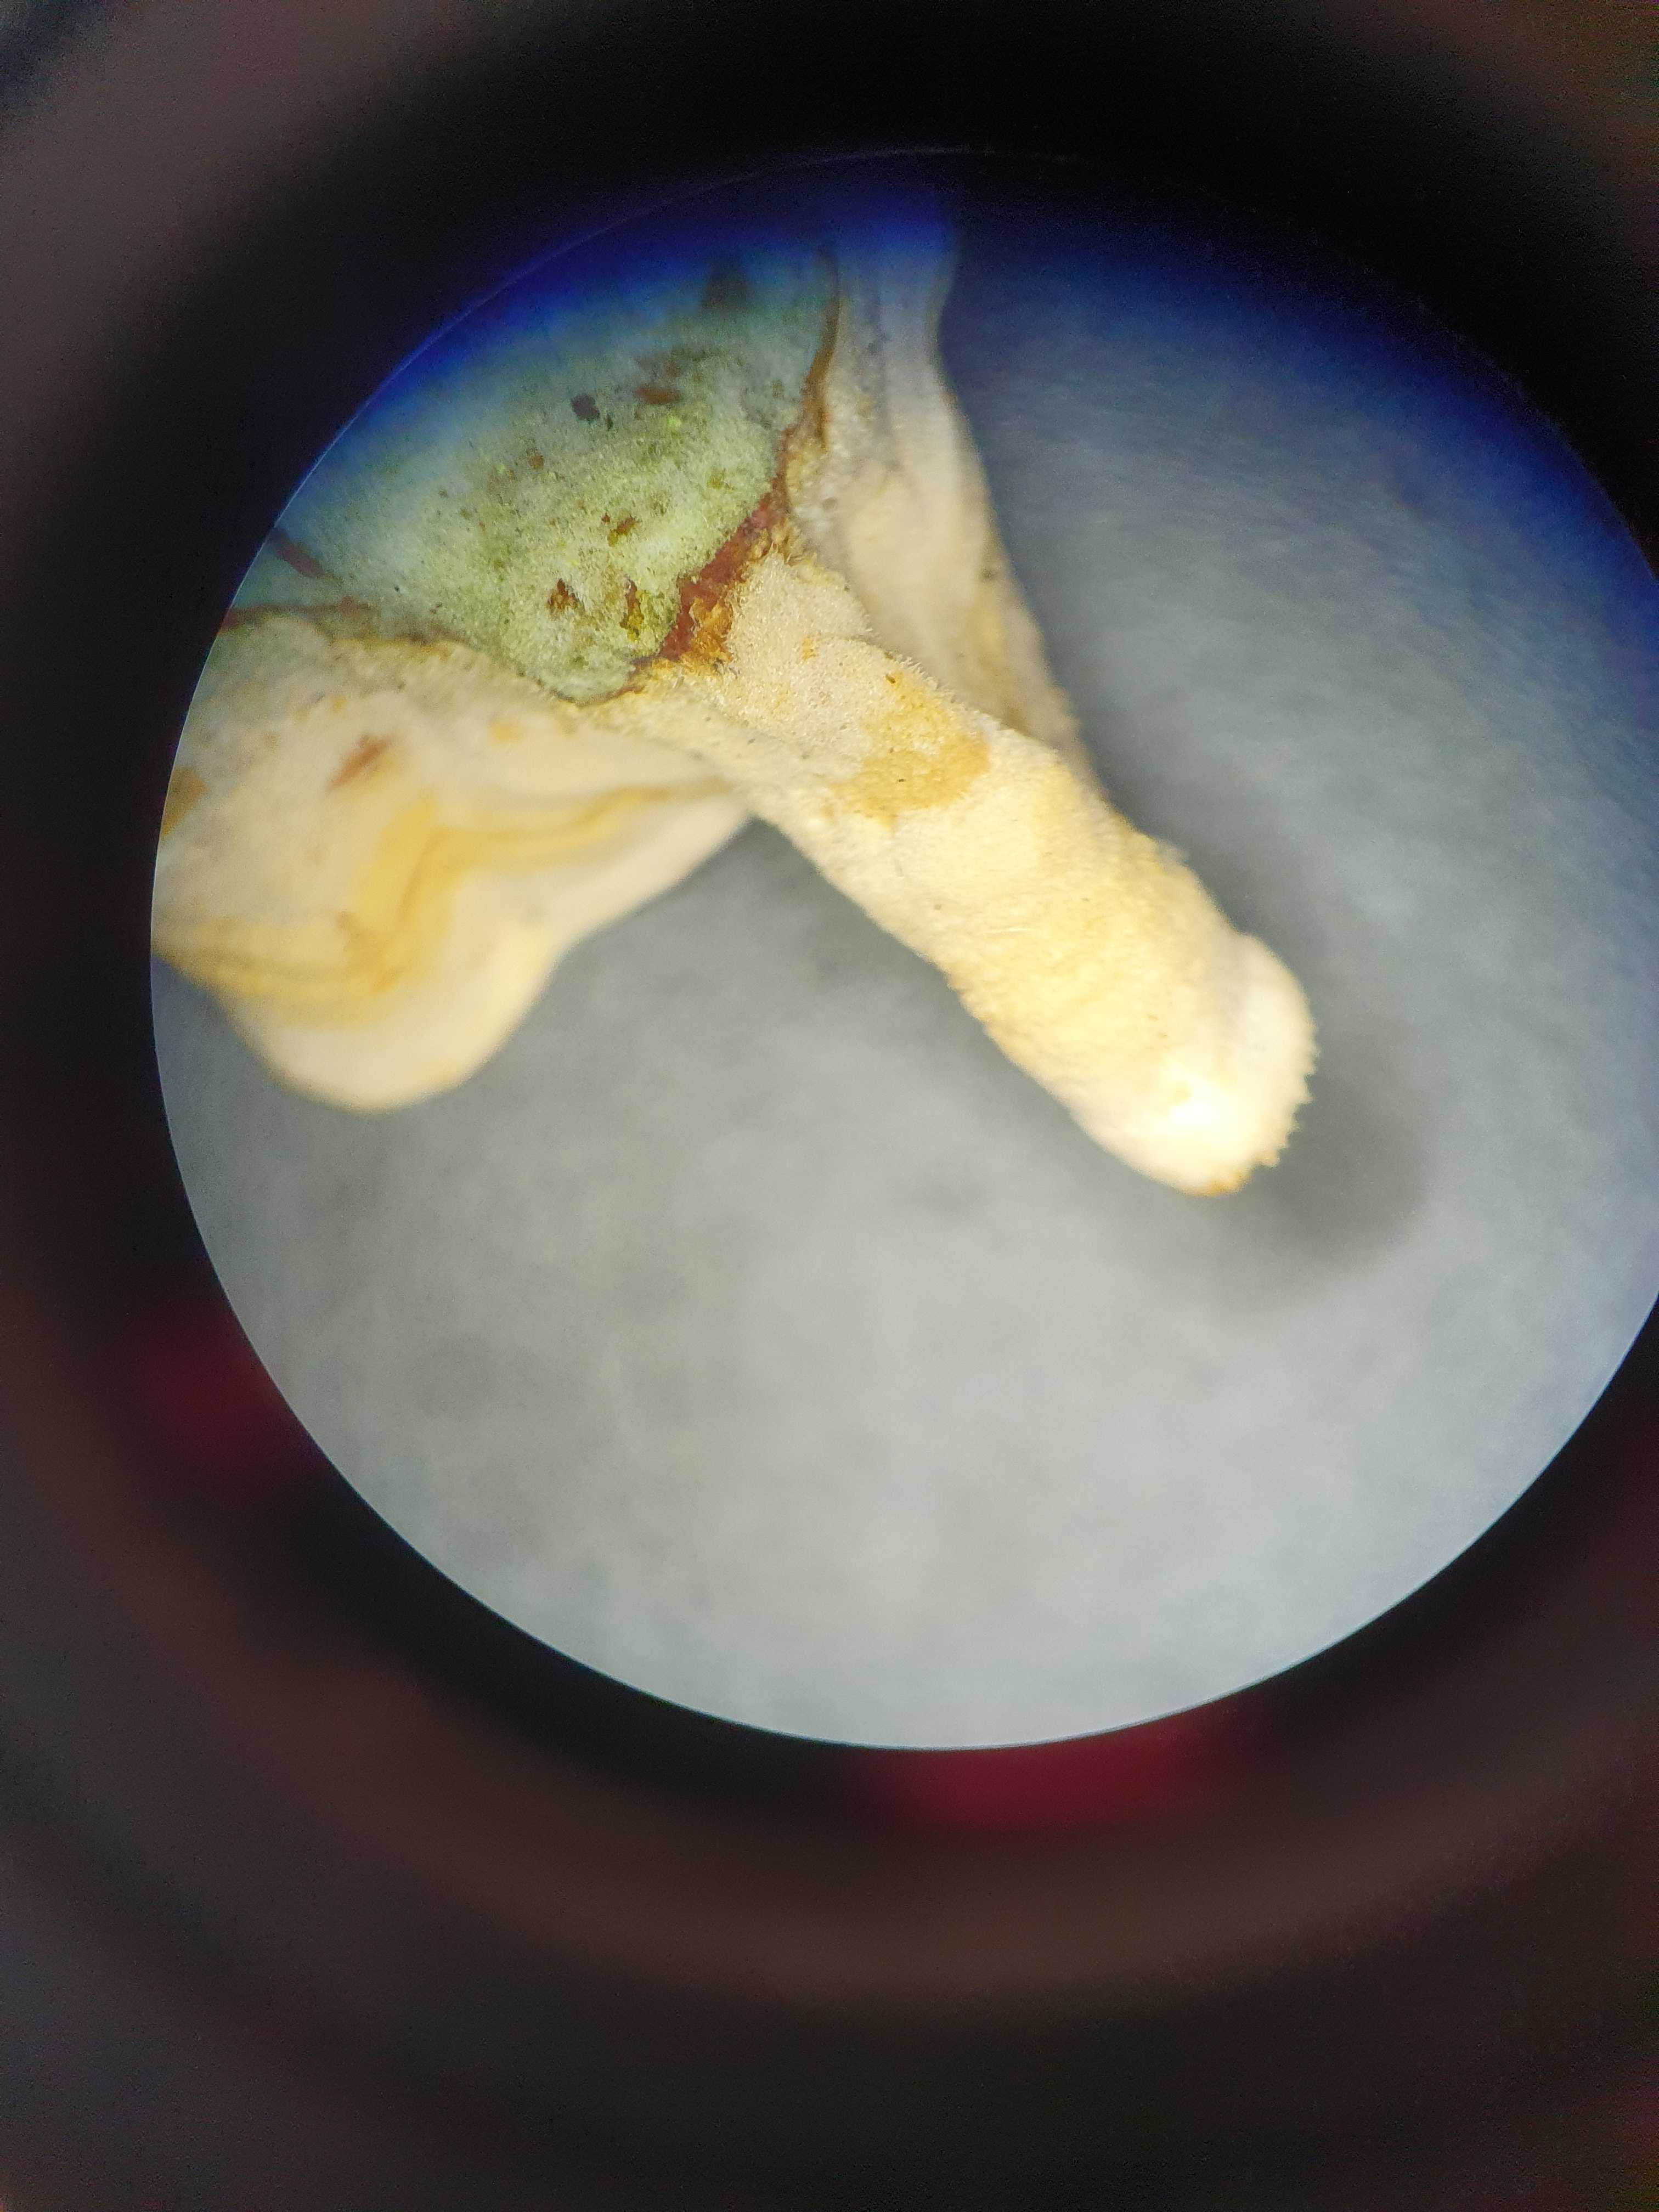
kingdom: Fungi
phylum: Basidiomycota
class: Agaricomycetes
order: Russulales
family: Stereaceae
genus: Stereum
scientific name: Stereum subtomentosum
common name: smuk lædersvamp
